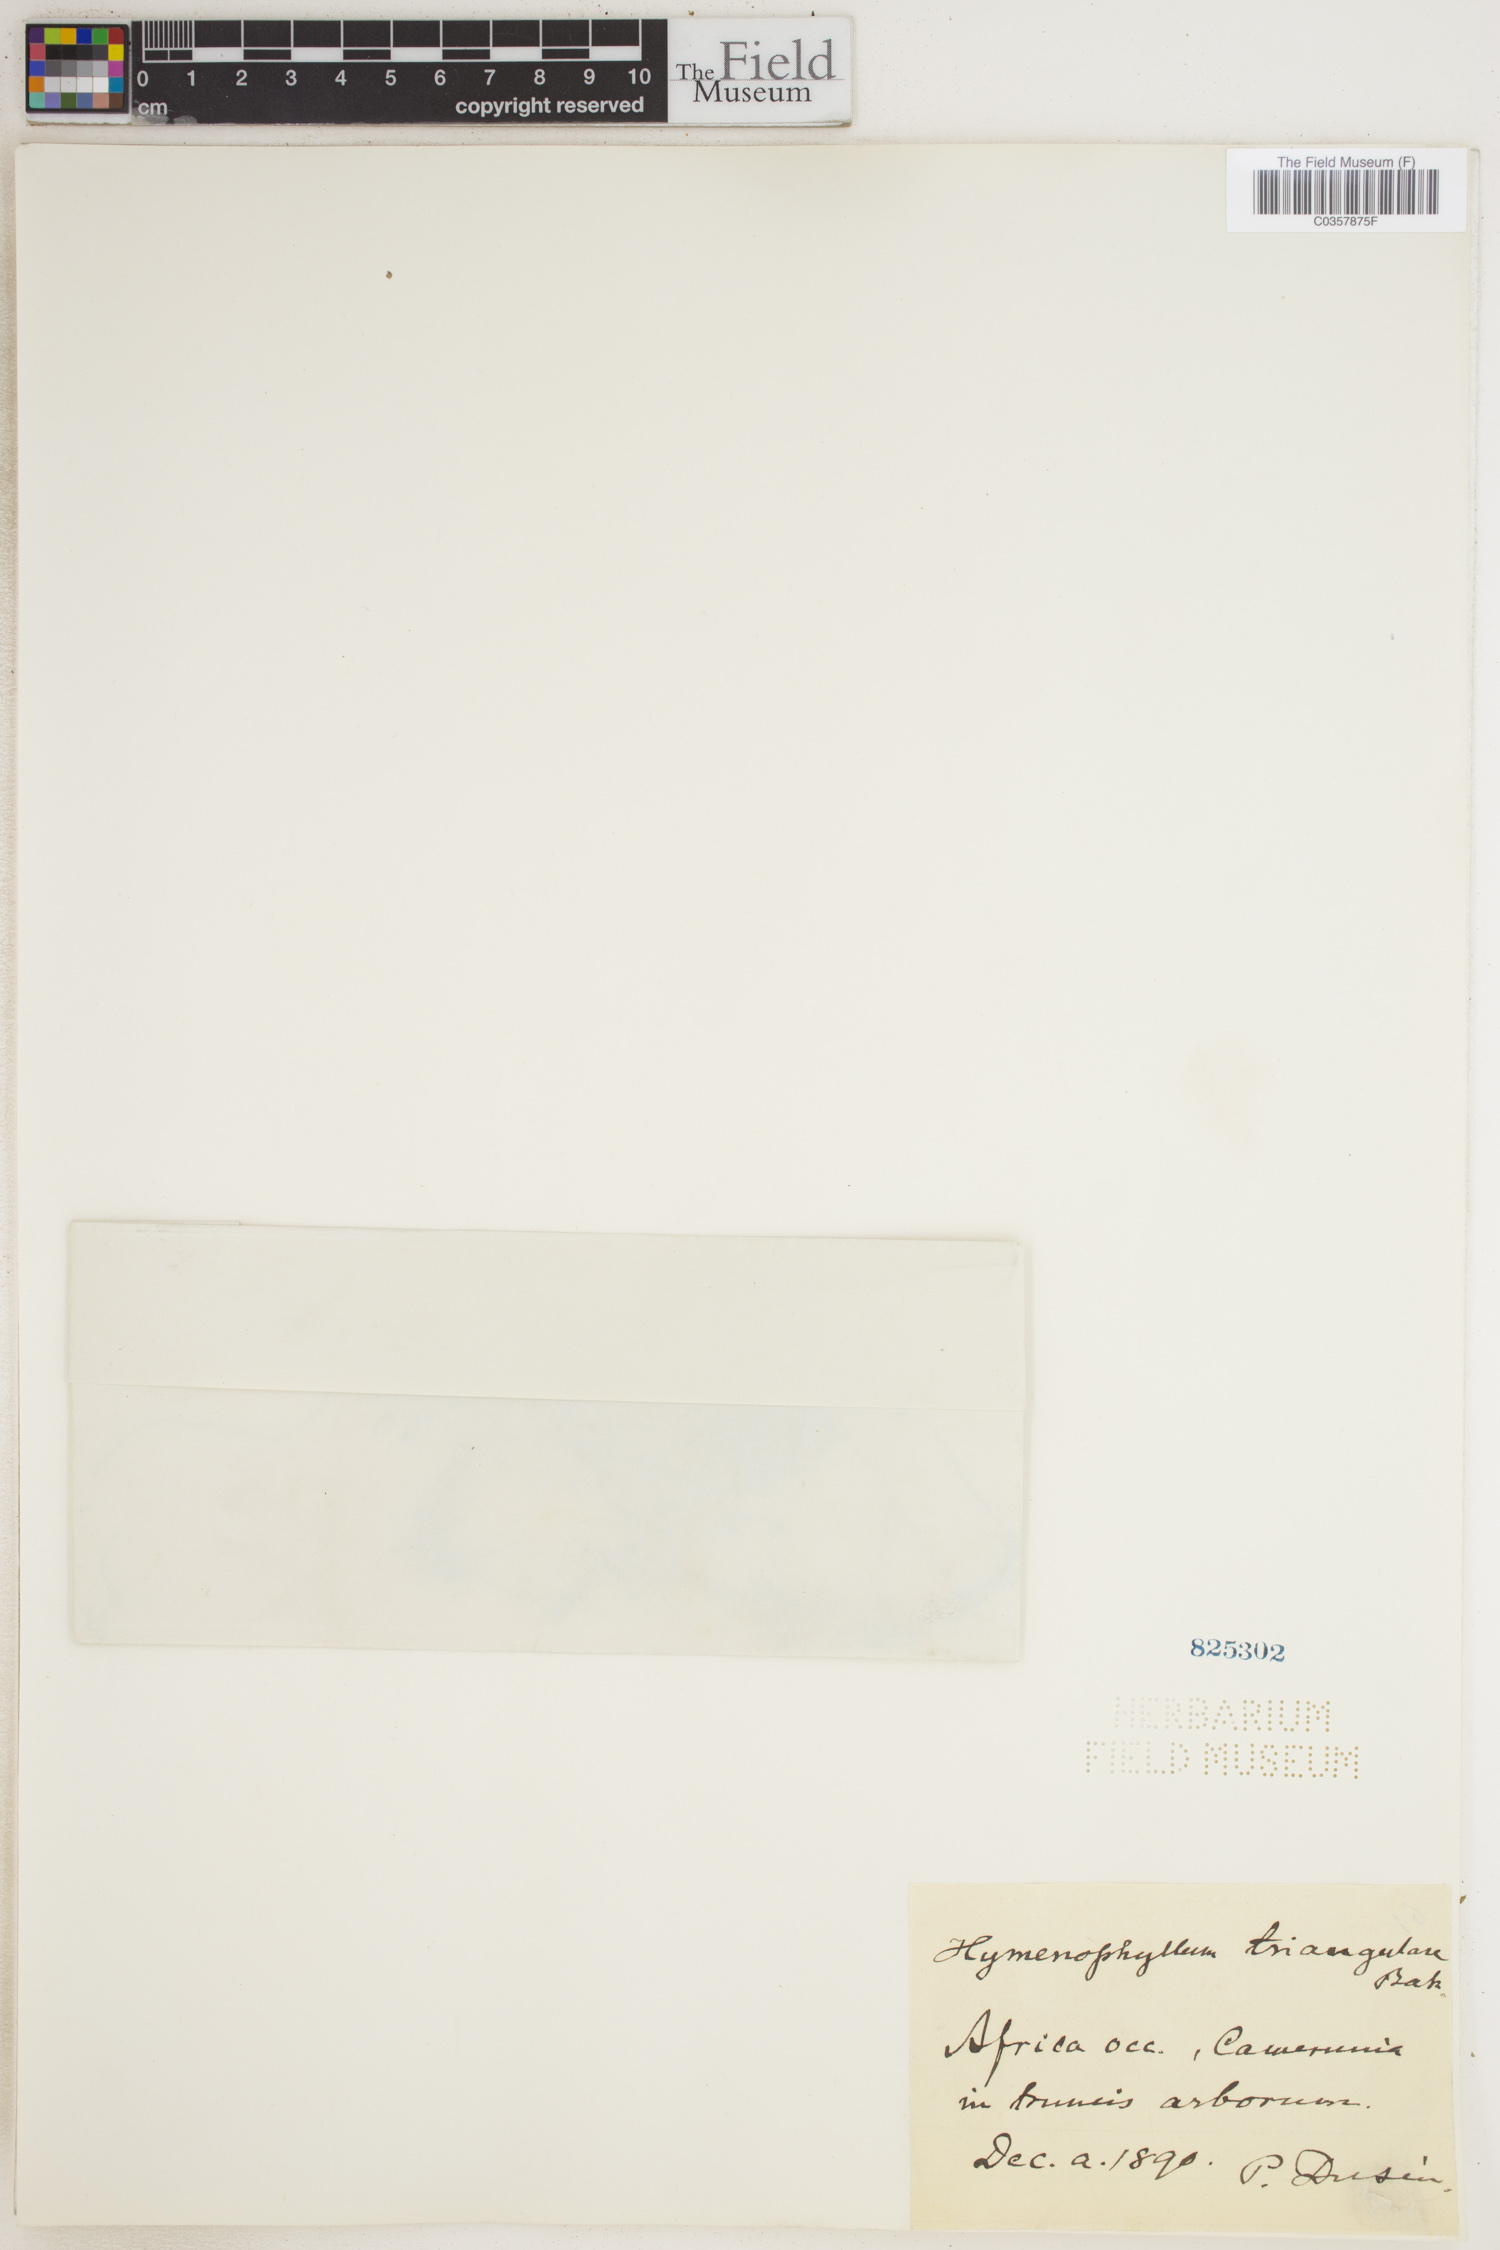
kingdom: Plantae
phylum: Tracheophyta
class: Polypodiopsida
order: Hymenophyllales
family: Hymenophyllaceae
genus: Hymenophyllum
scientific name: Hymenophyllum triangulare
